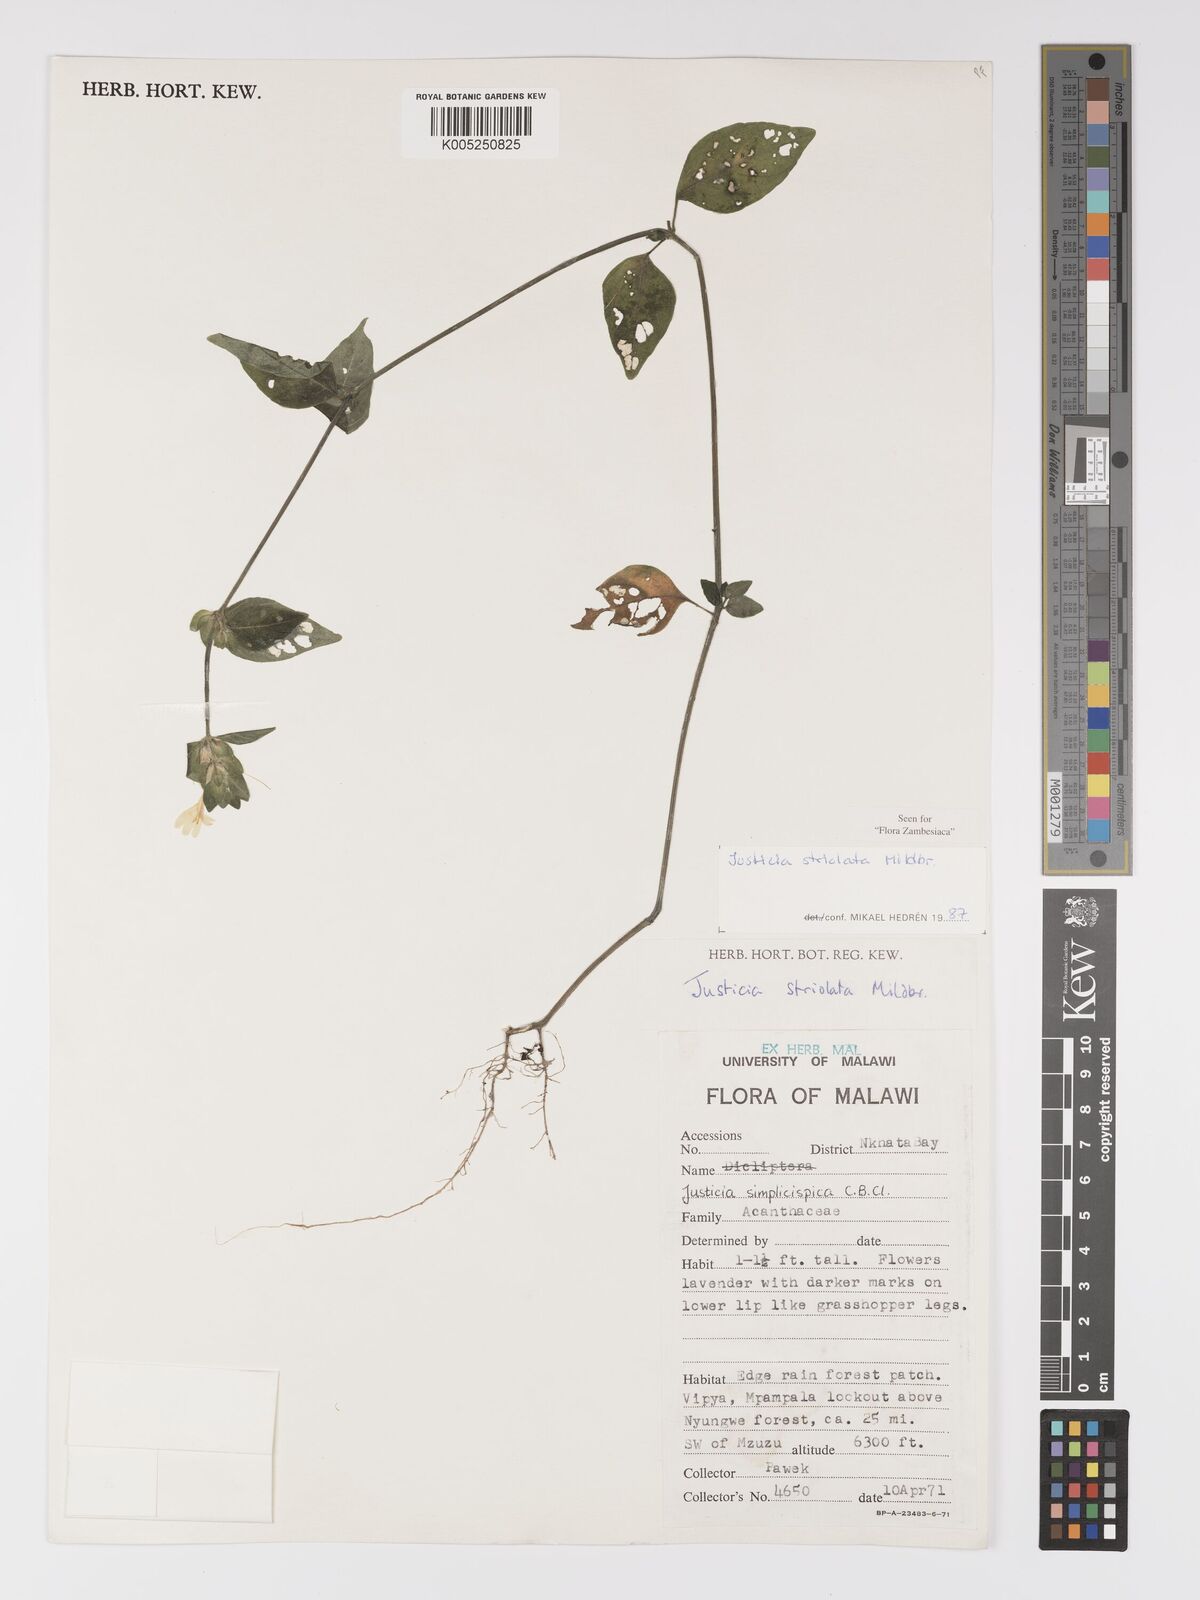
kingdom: Plantae
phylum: Tracheophyta
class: Magnoliopsida
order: Lamiales
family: Acanthaceae
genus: Justicia
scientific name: Justicia striolata
